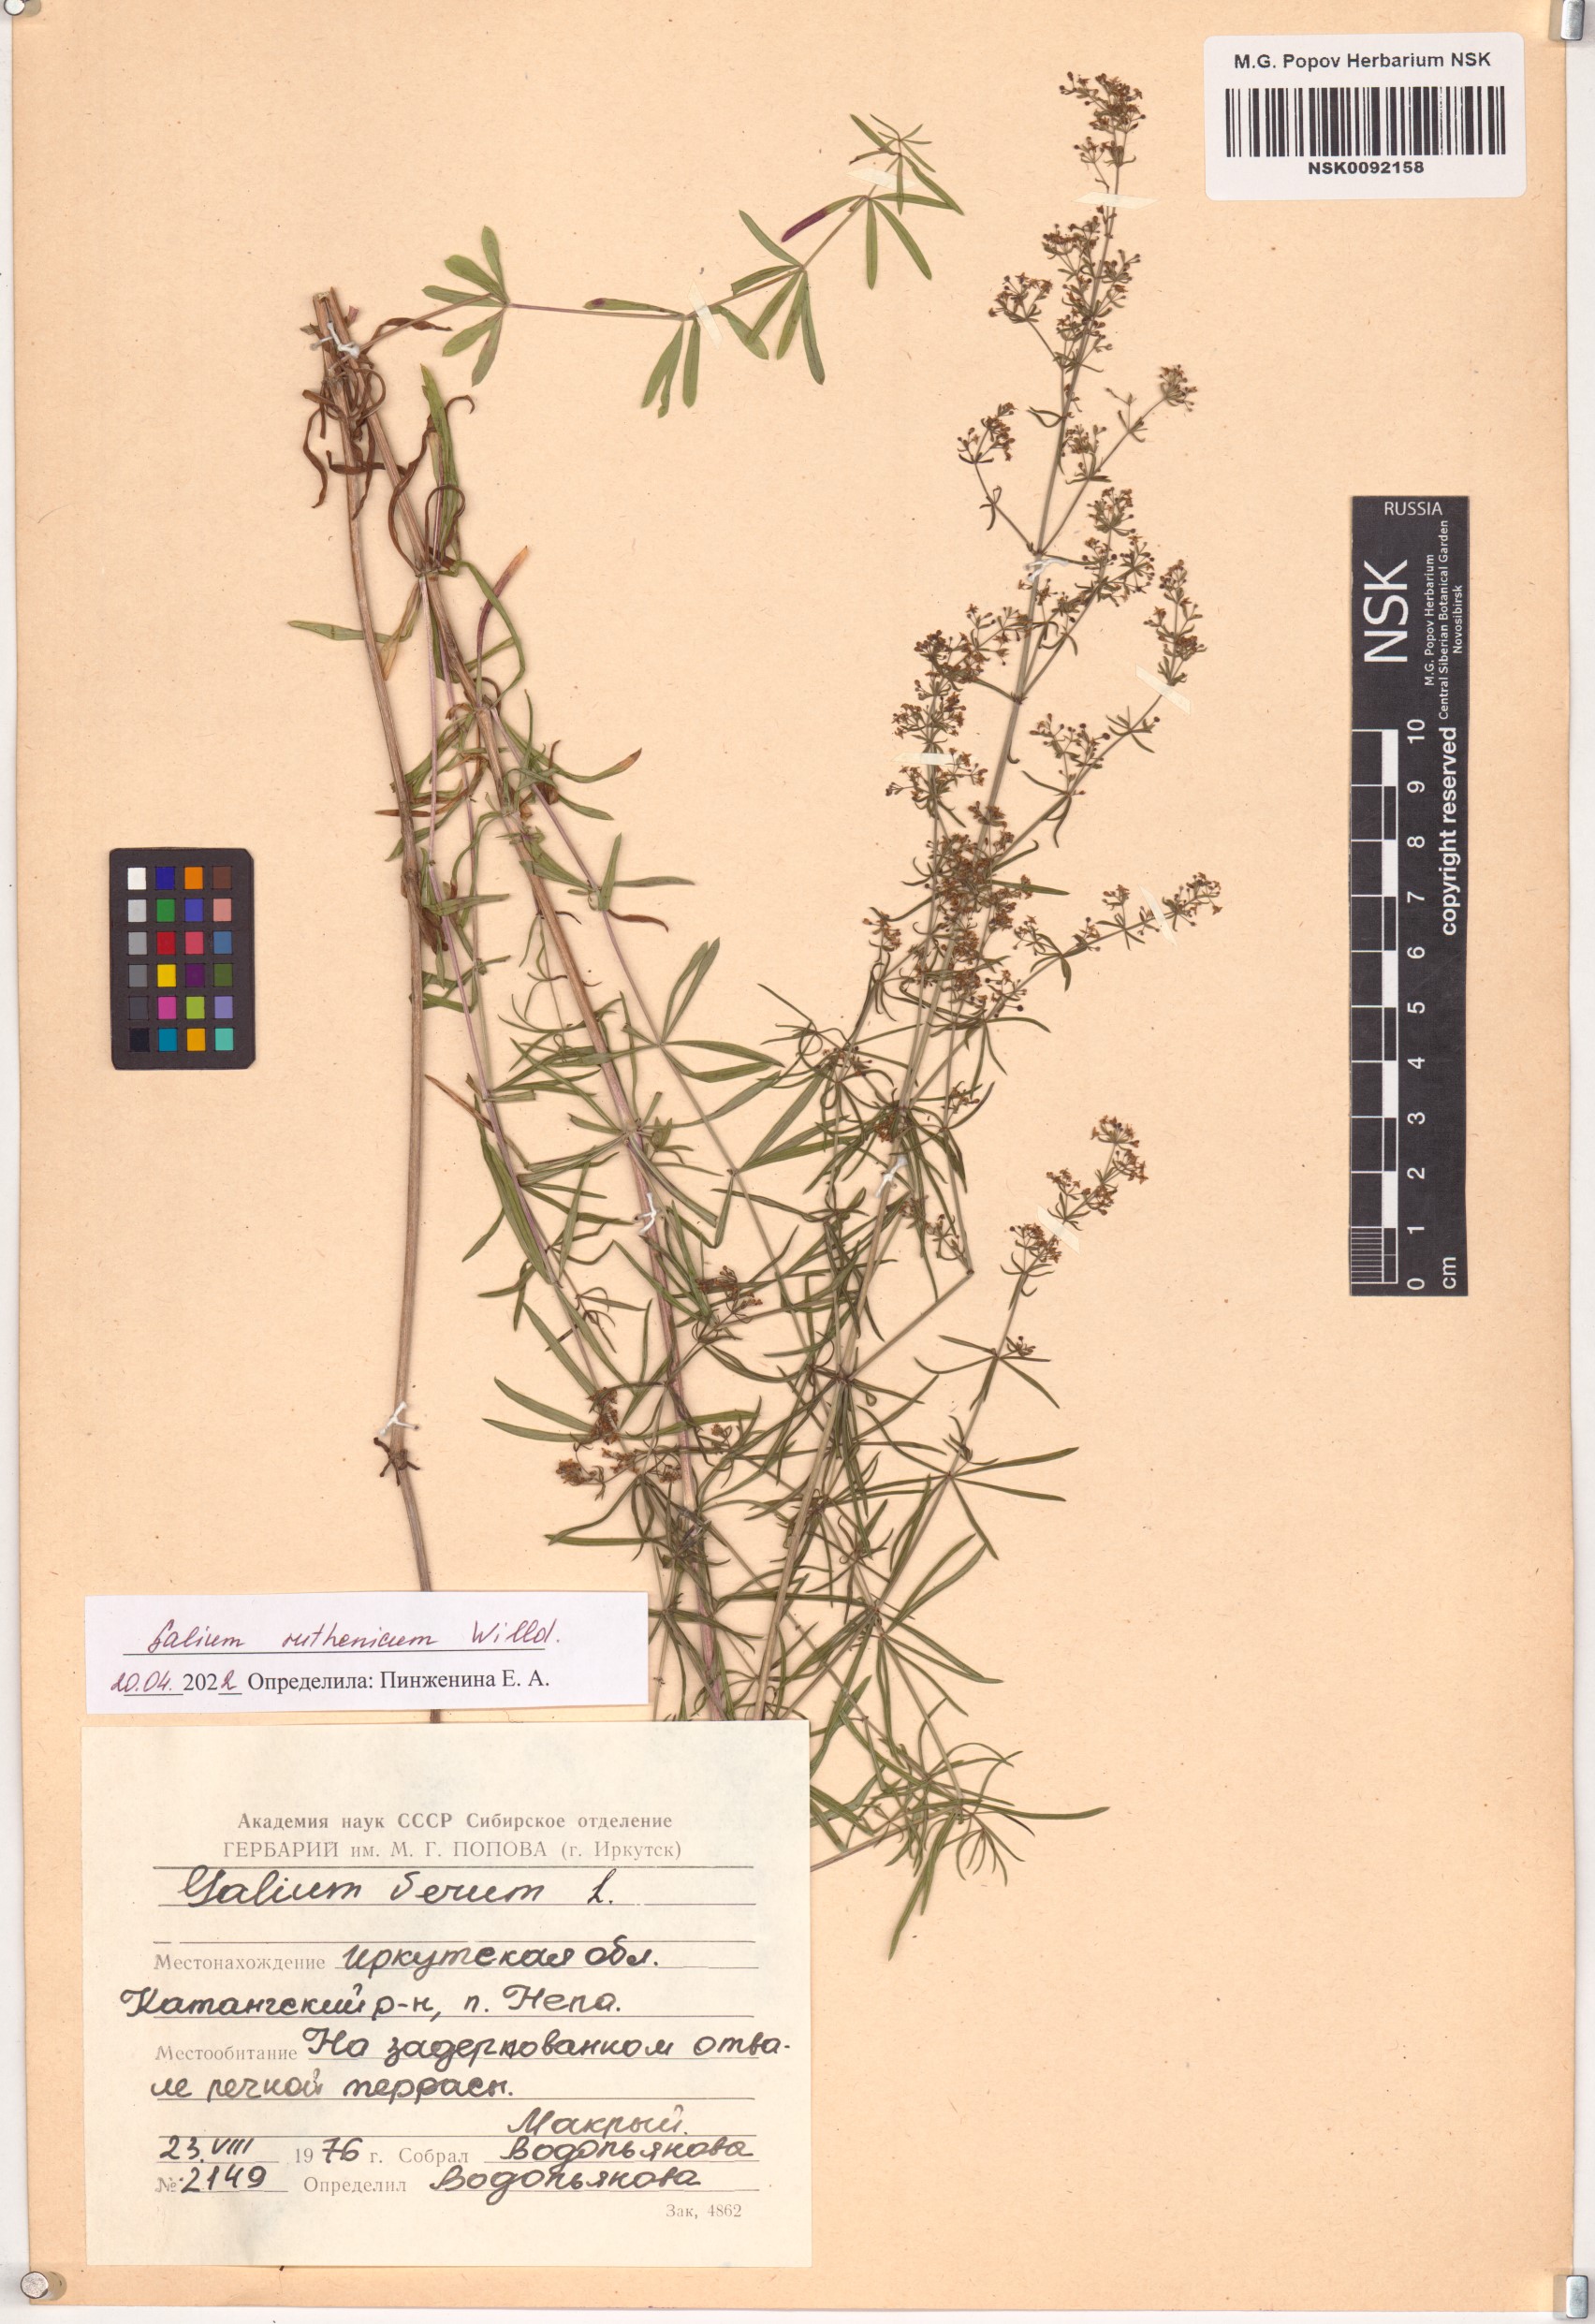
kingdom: Plantae
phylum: Tracheophyta
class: Magnoliopsida
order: Gentianales
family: Rubiaceae
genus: Galium
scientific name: Galium verum
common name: Lady's bedstraw
